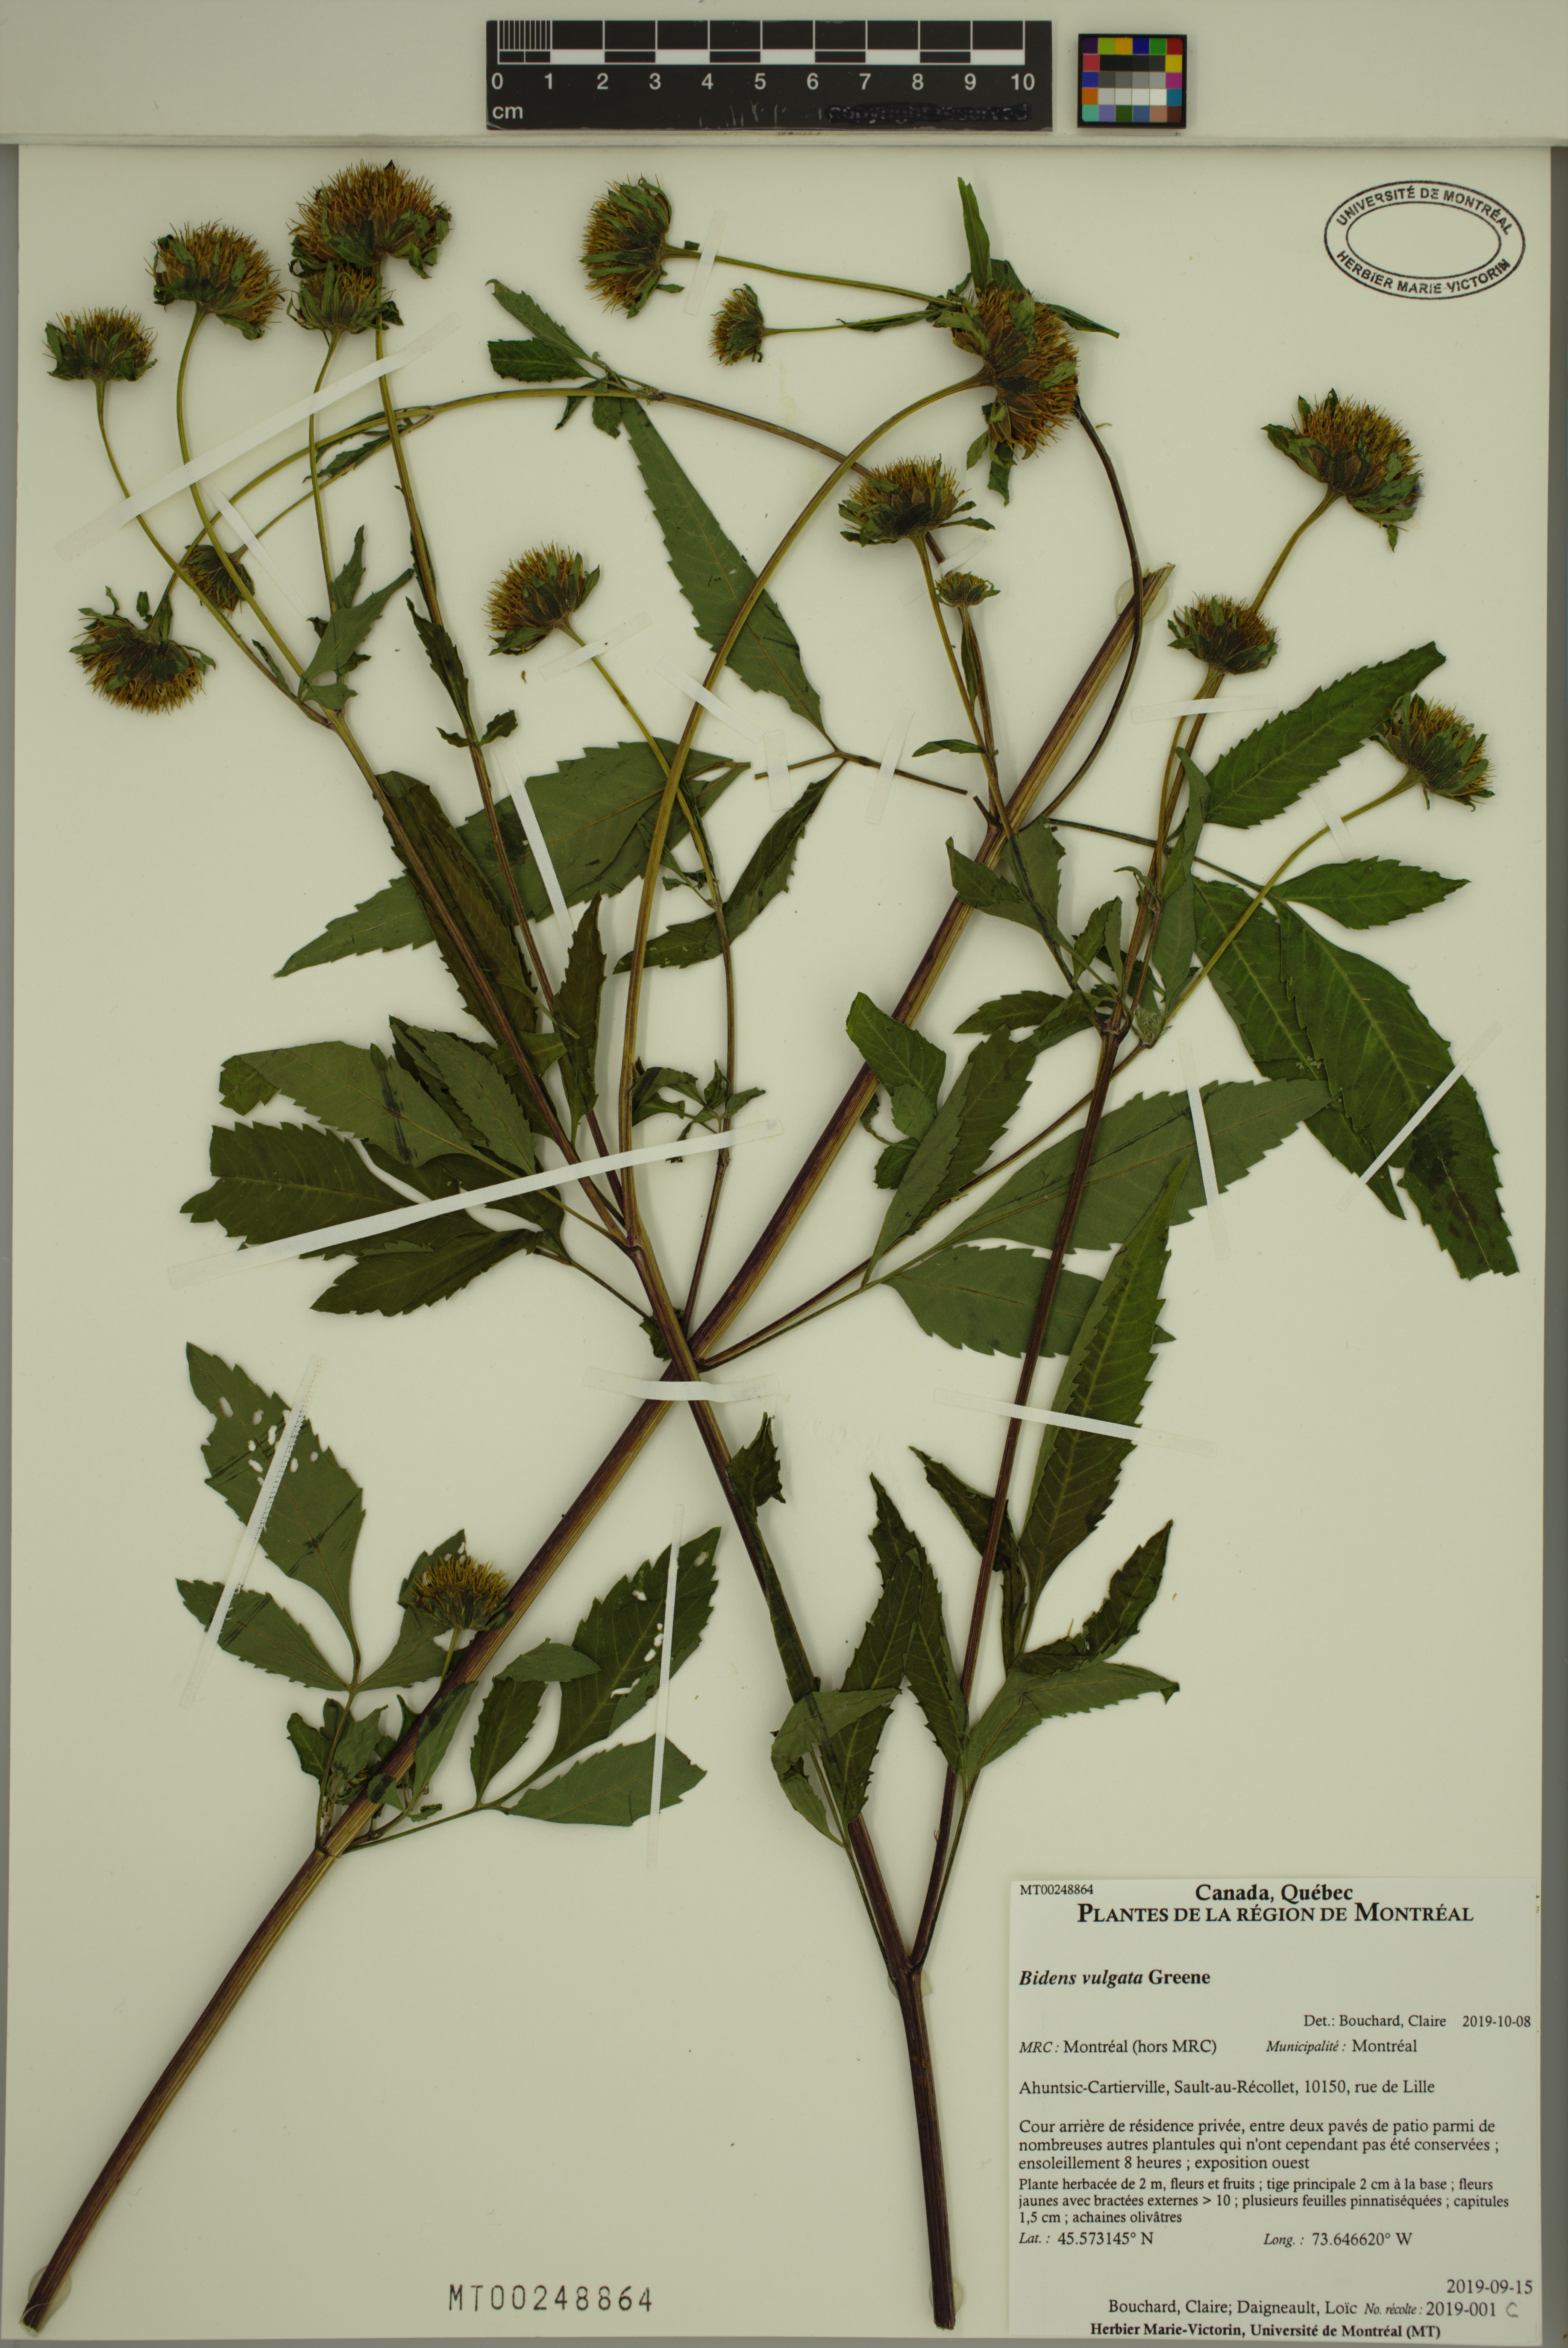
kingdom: Plantae
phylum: Tracheophyta
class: Magnoliopsida
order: Asterales
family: Asteraceae
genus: Bidens
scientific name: Bidens vulgata
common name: Tall beggarticks
